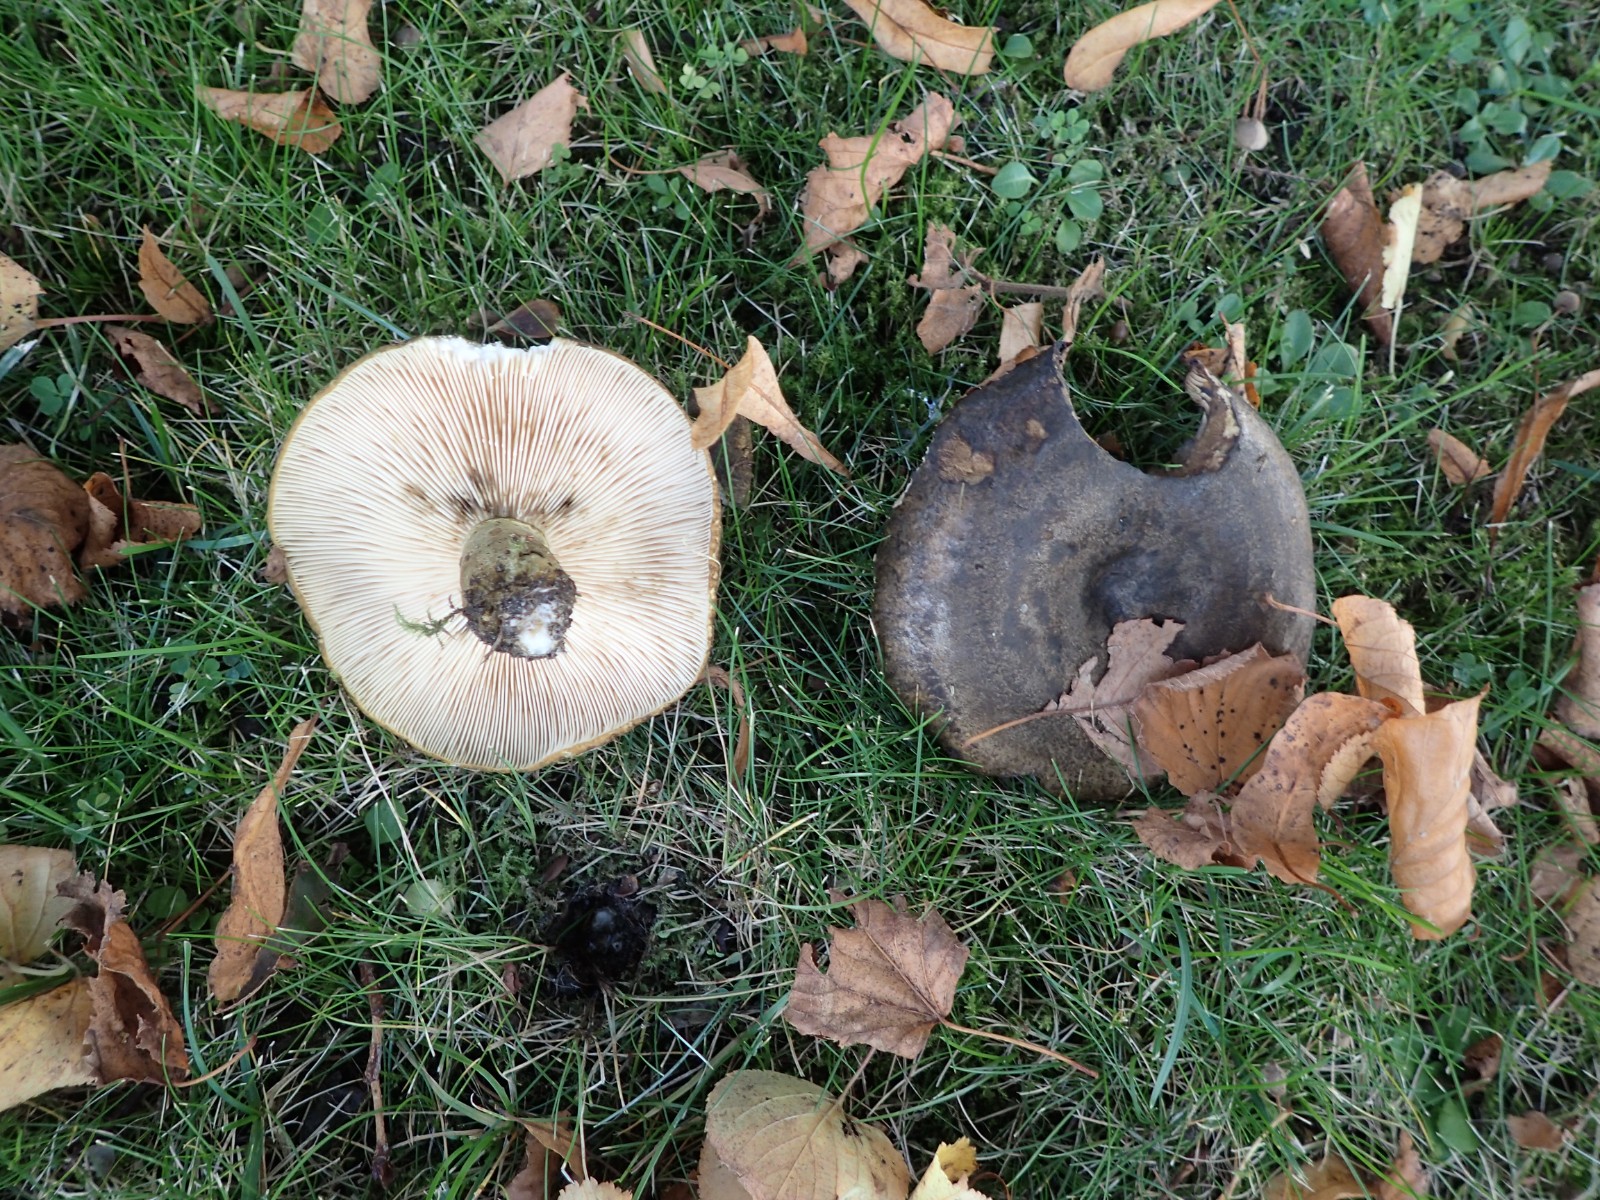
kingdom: Fungi
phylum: Basidiomycota
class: Agaricomycetes
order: Russulales
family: Russulaceae
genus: Lactarius
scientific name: Lactarius necator
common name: manddraber-mælkehat
